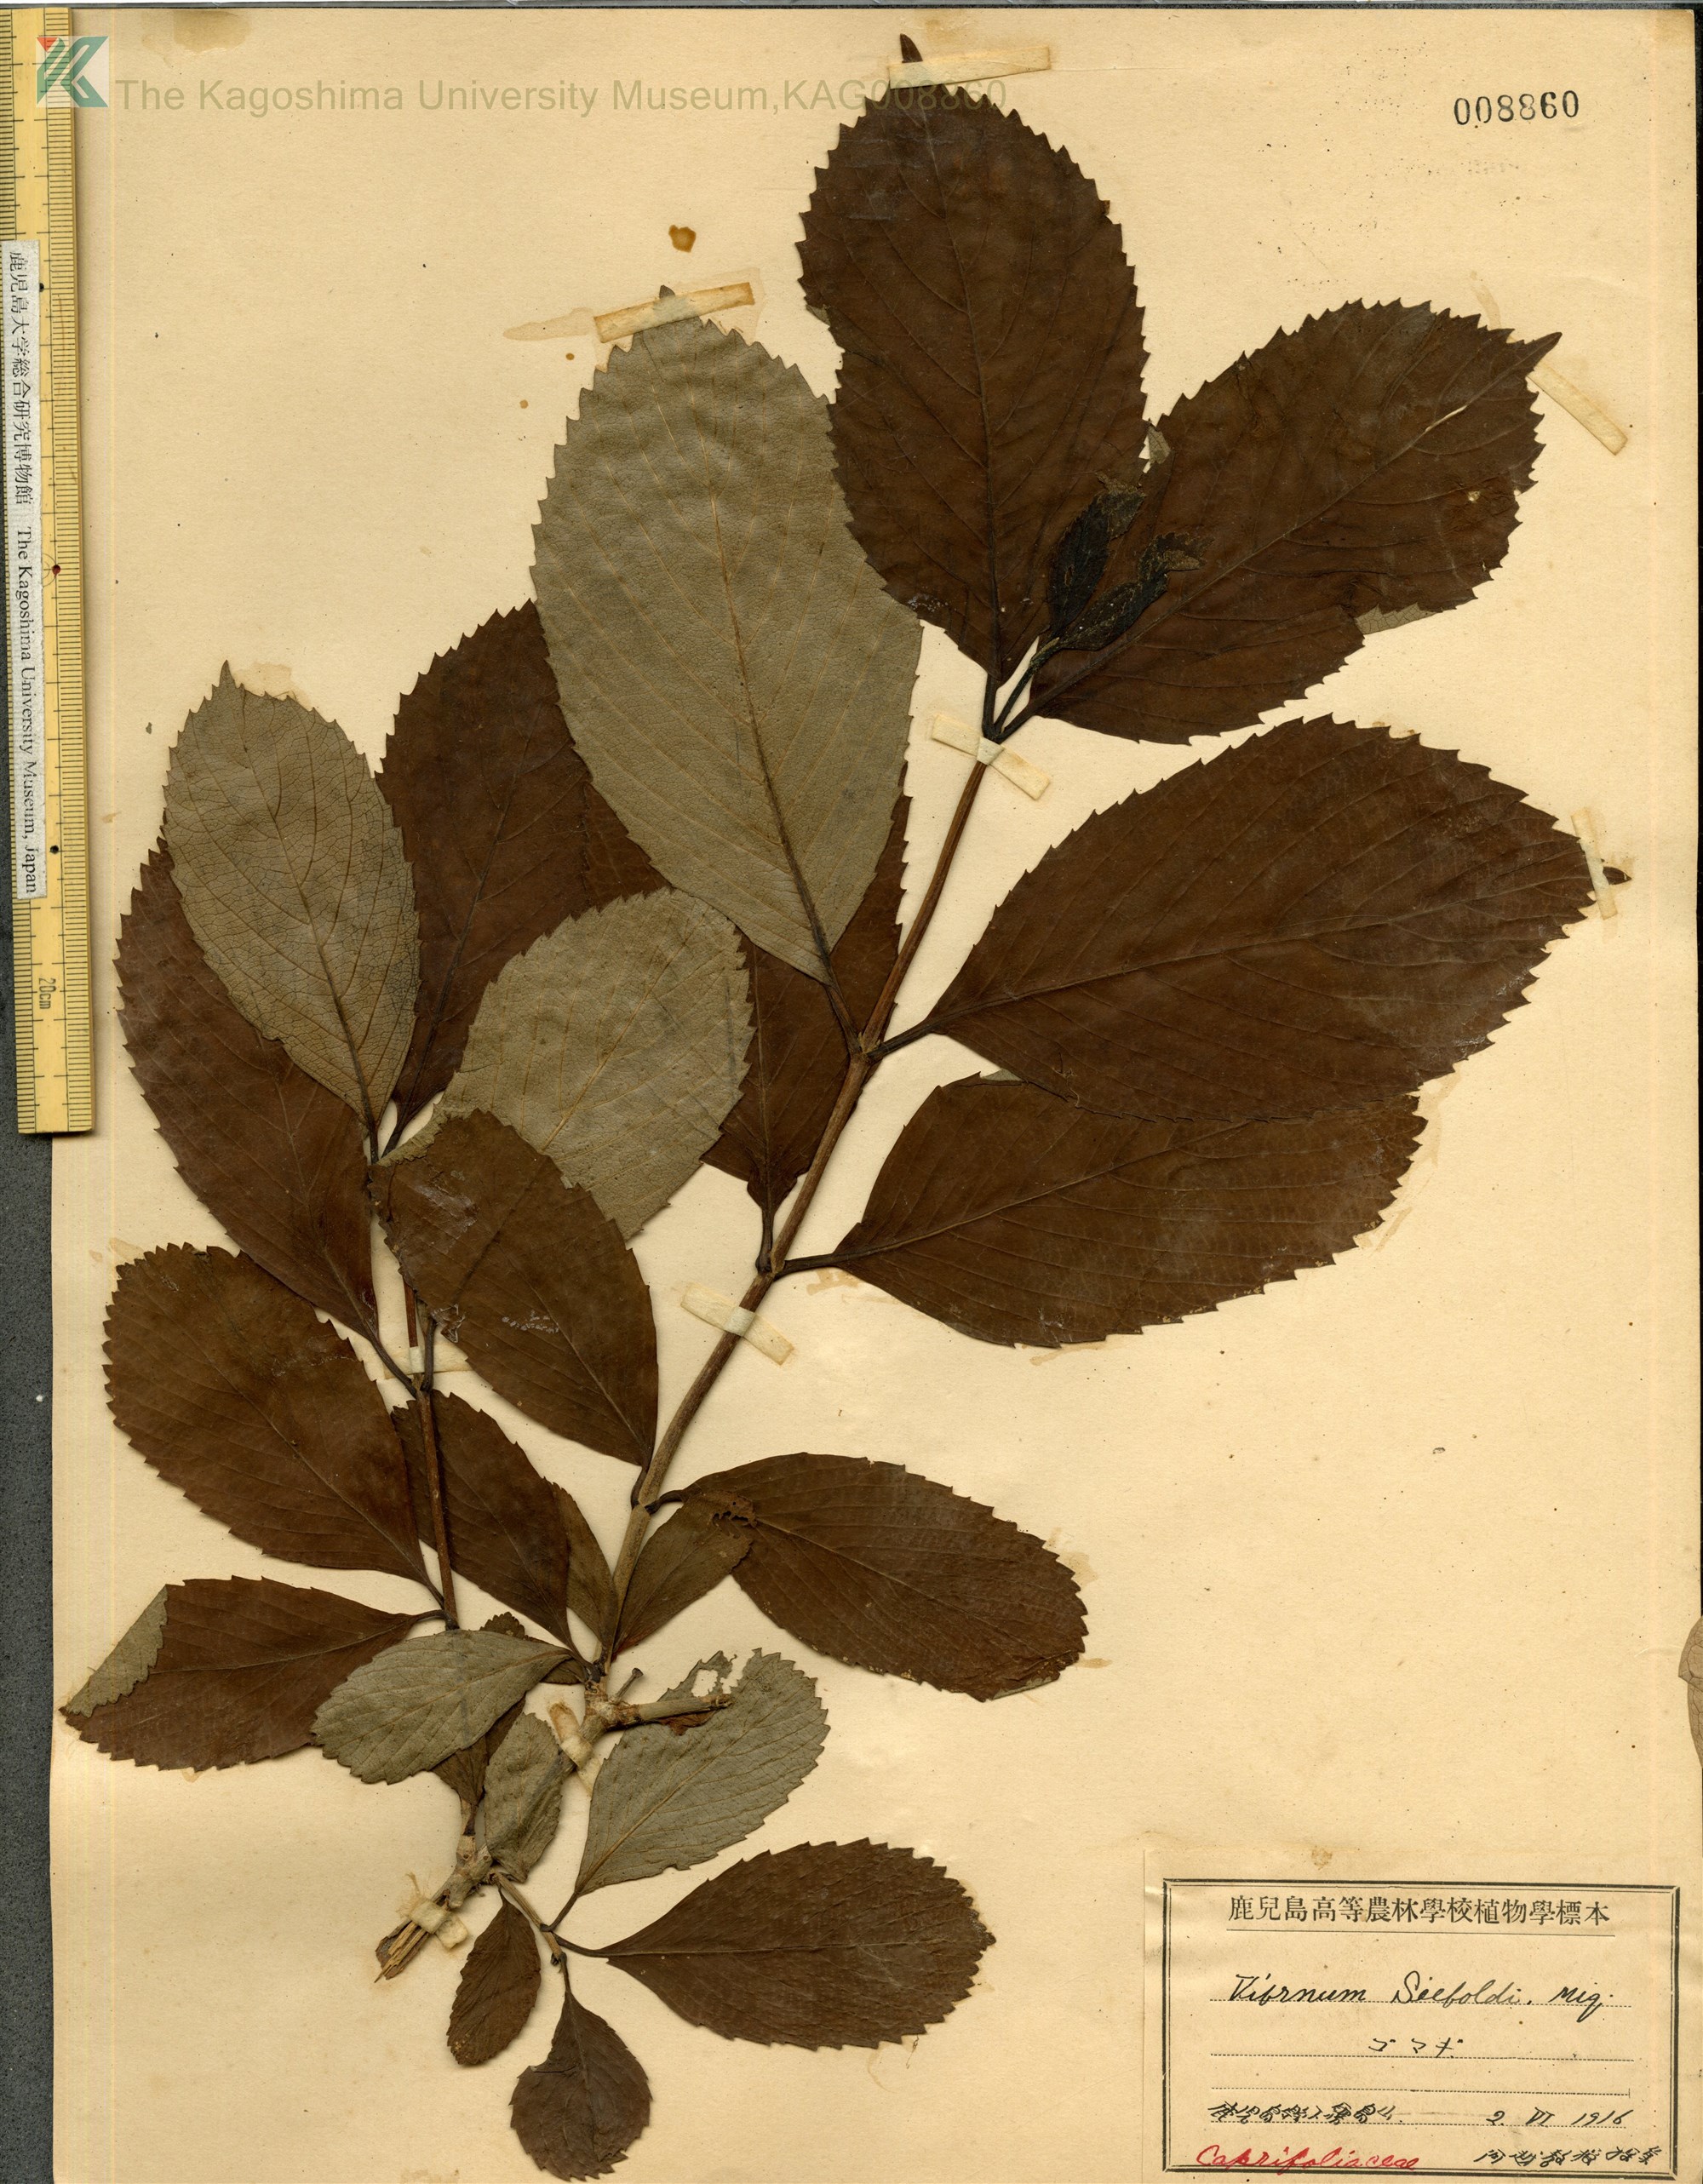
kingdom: Plantae
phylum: Tracheophyta
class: Magnoliopsida
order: Dipsacales
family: Viburnaceae
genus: Viburnum
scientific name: Viburnum sieboldii
